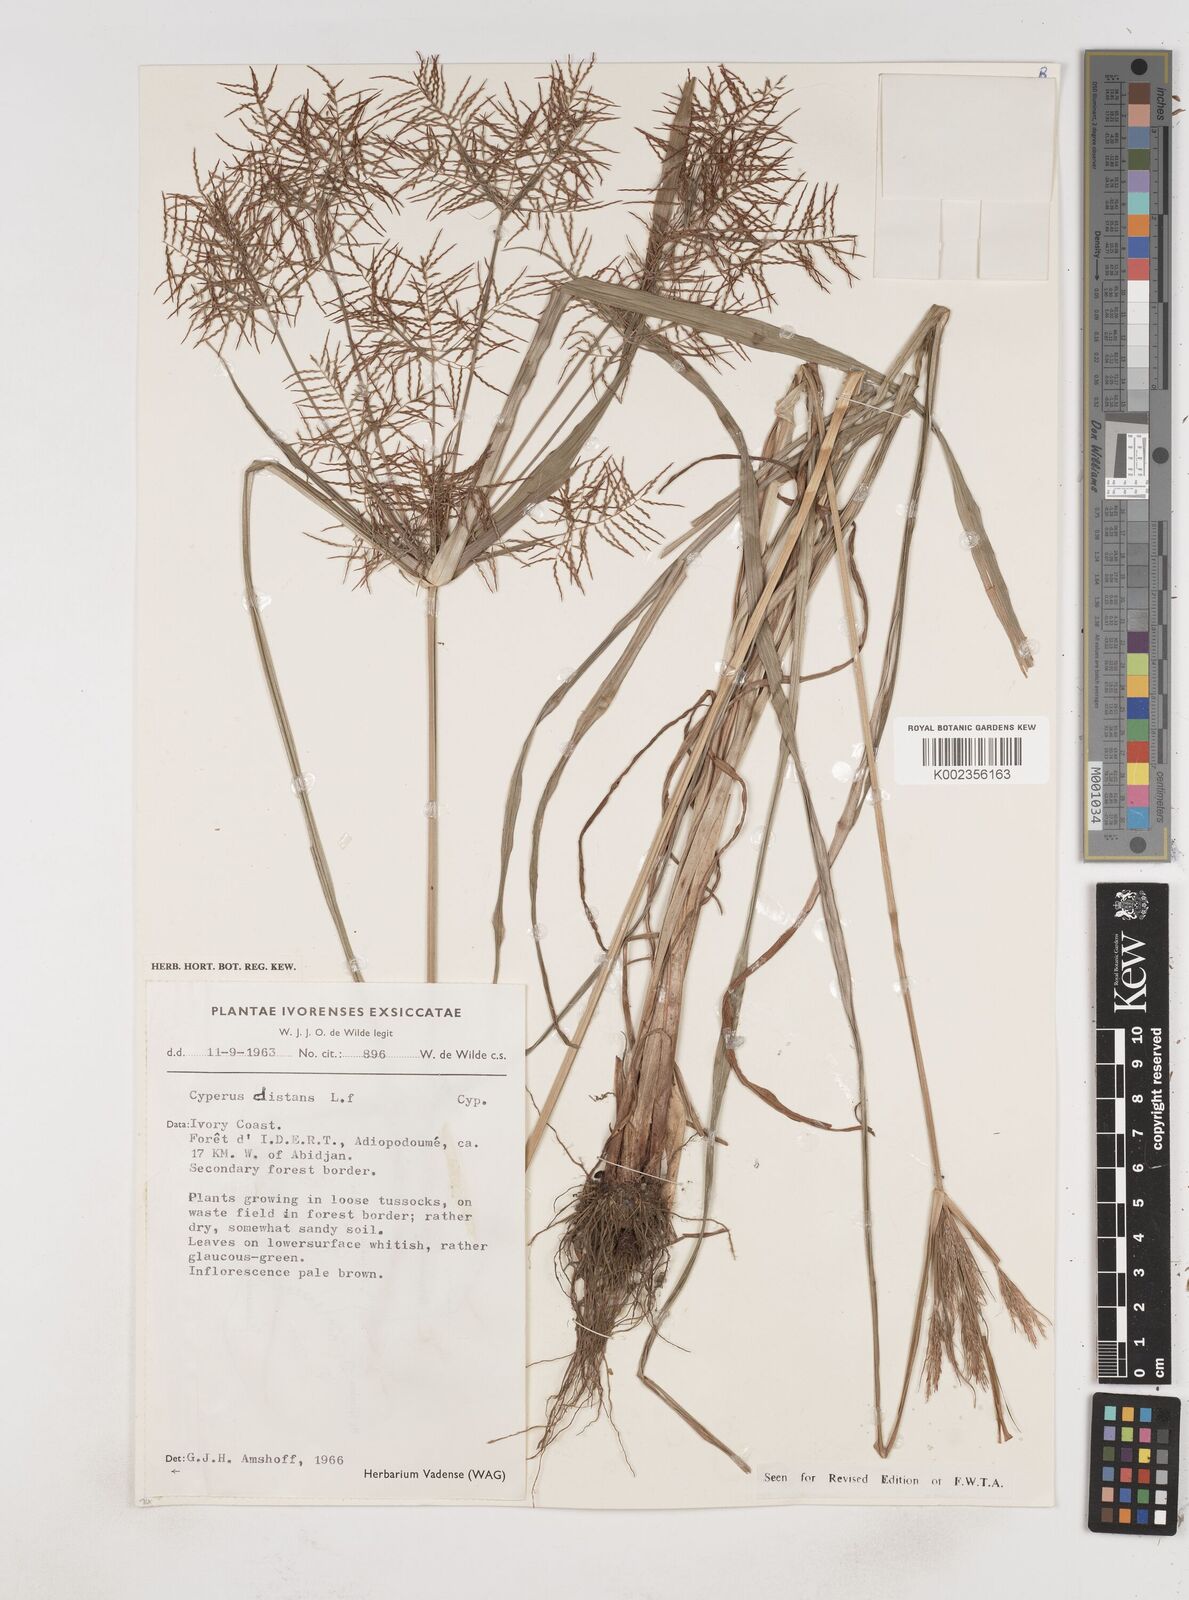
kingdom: Plantae
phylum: Tracheophyta
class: Liliopsida
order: Poales
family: Cyperaceae
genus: Cyperus
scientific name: Cyperus distans
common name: Slender cyperus
